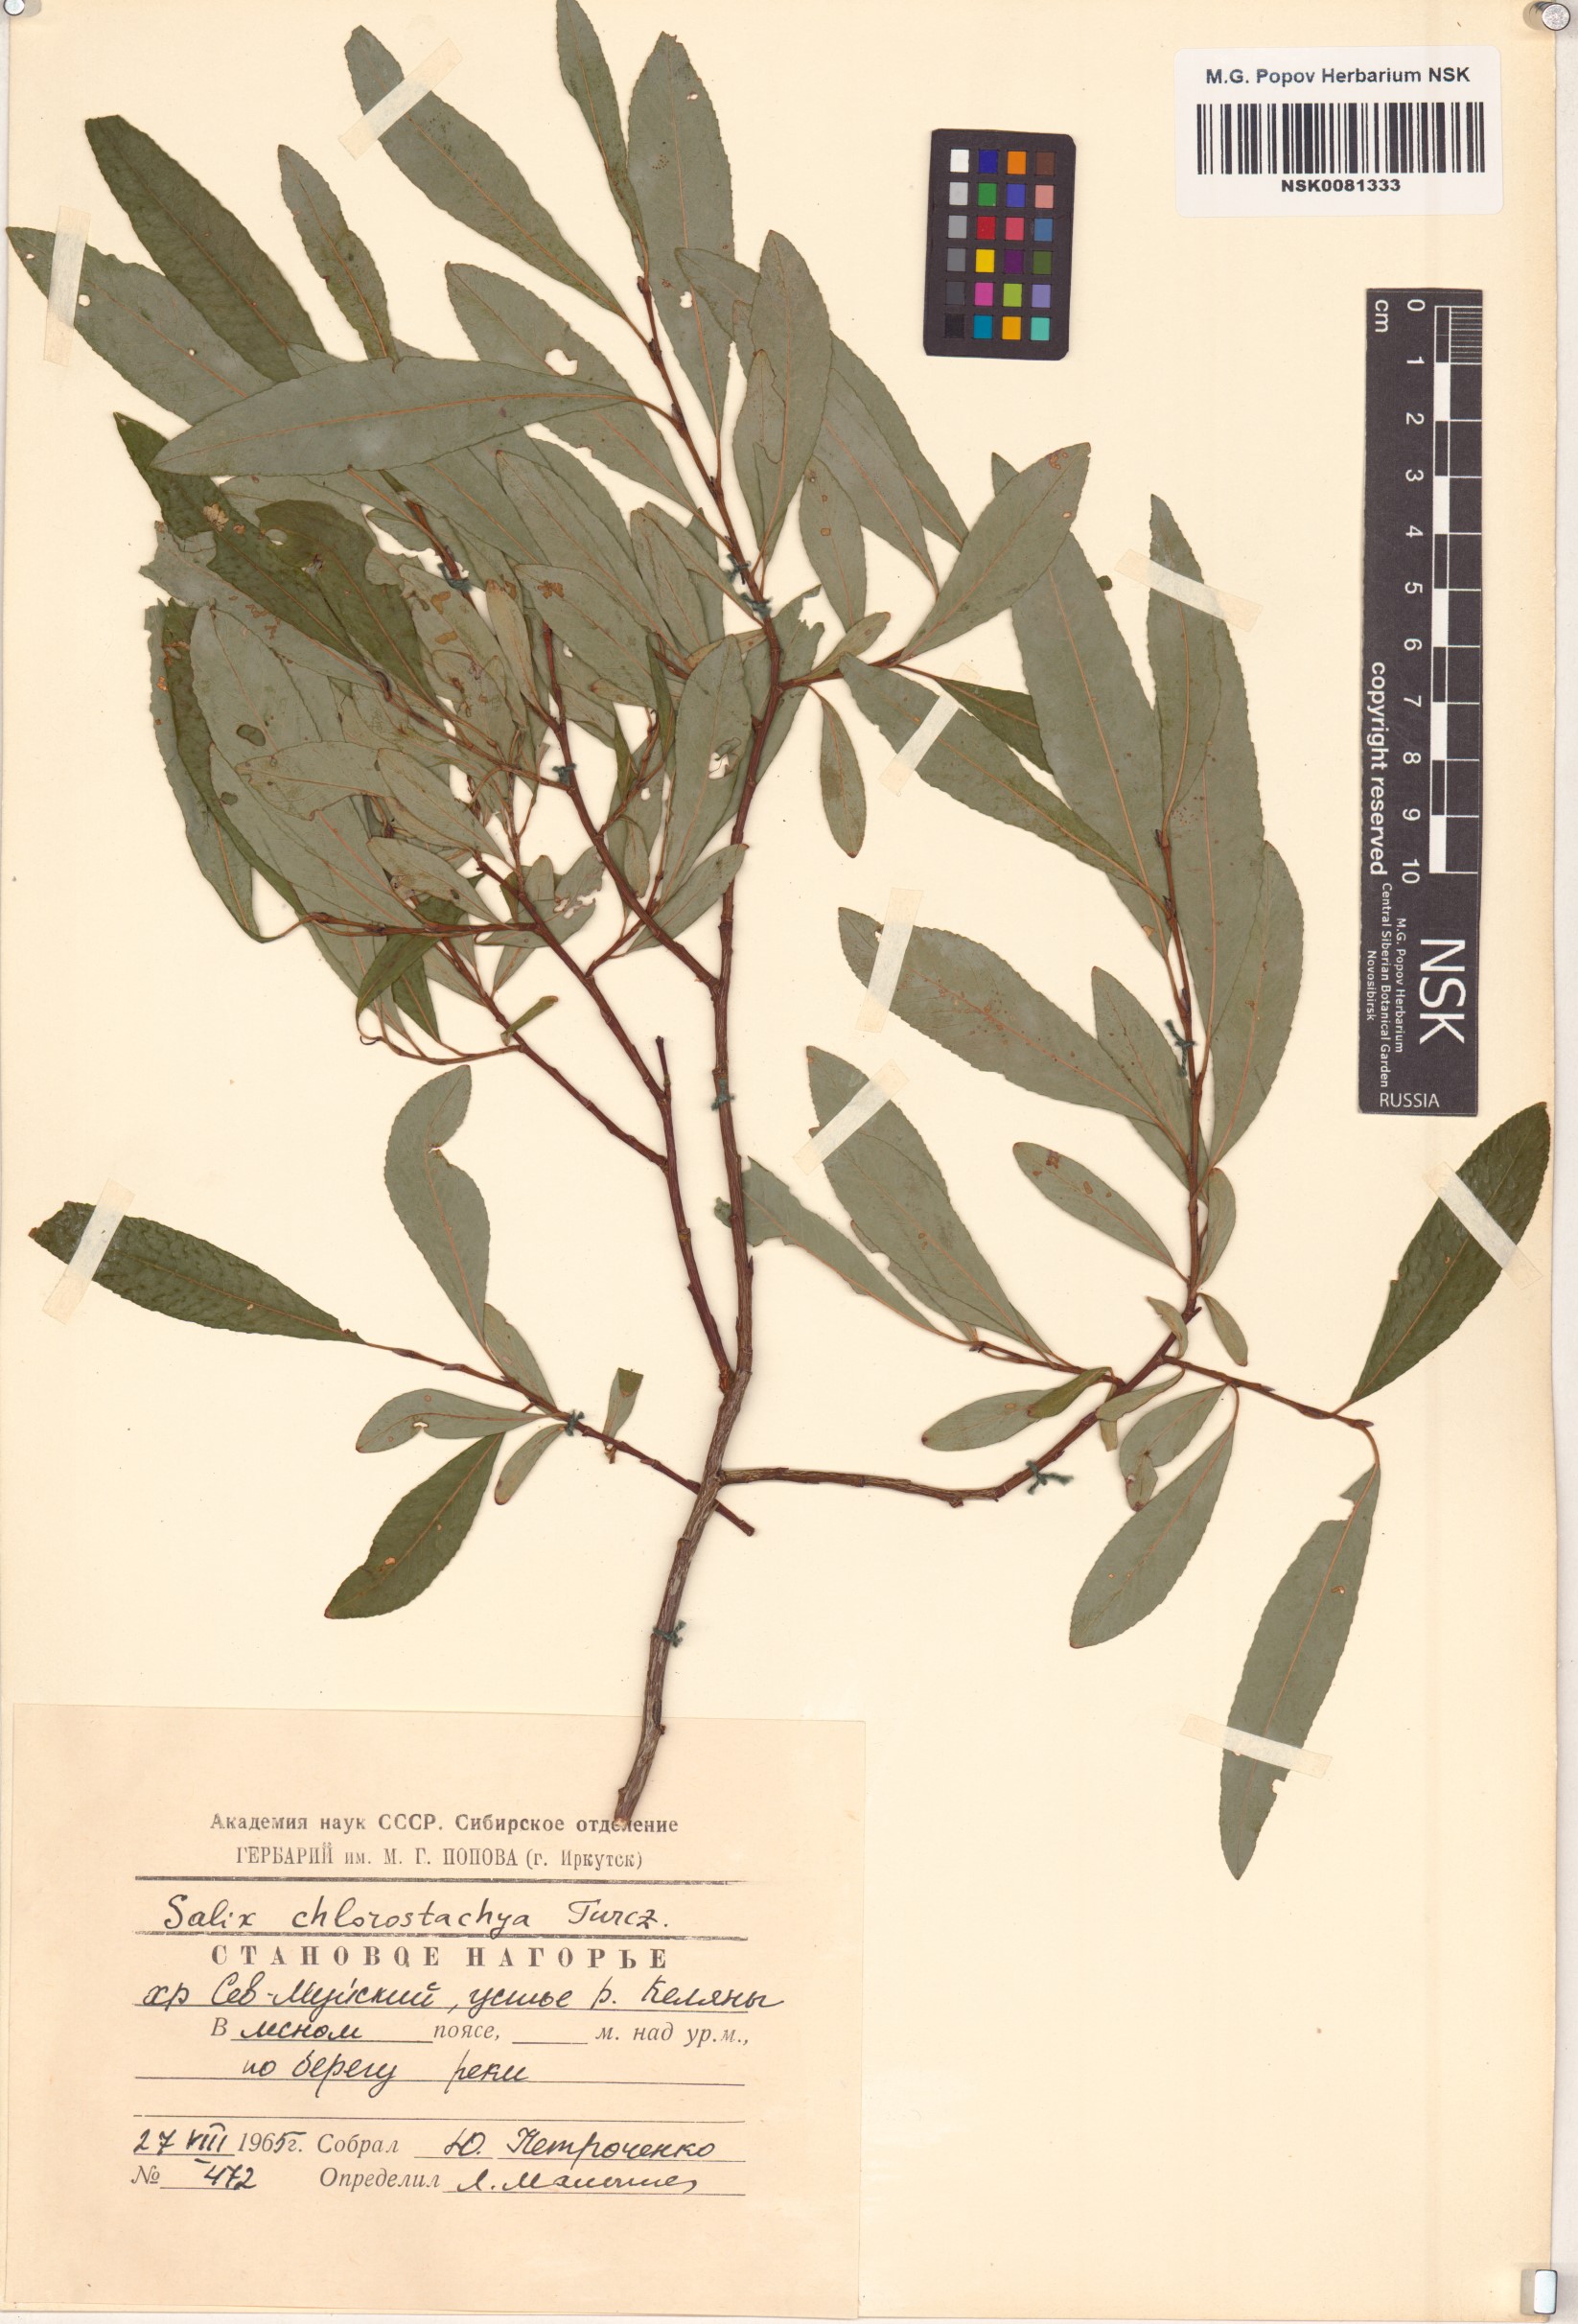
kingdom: Plantae
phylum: Tracheophyta
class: Magnoliopsida
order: Malpighiales
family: Salicaceae
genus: Salix
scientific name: Salix rhamnifolia
